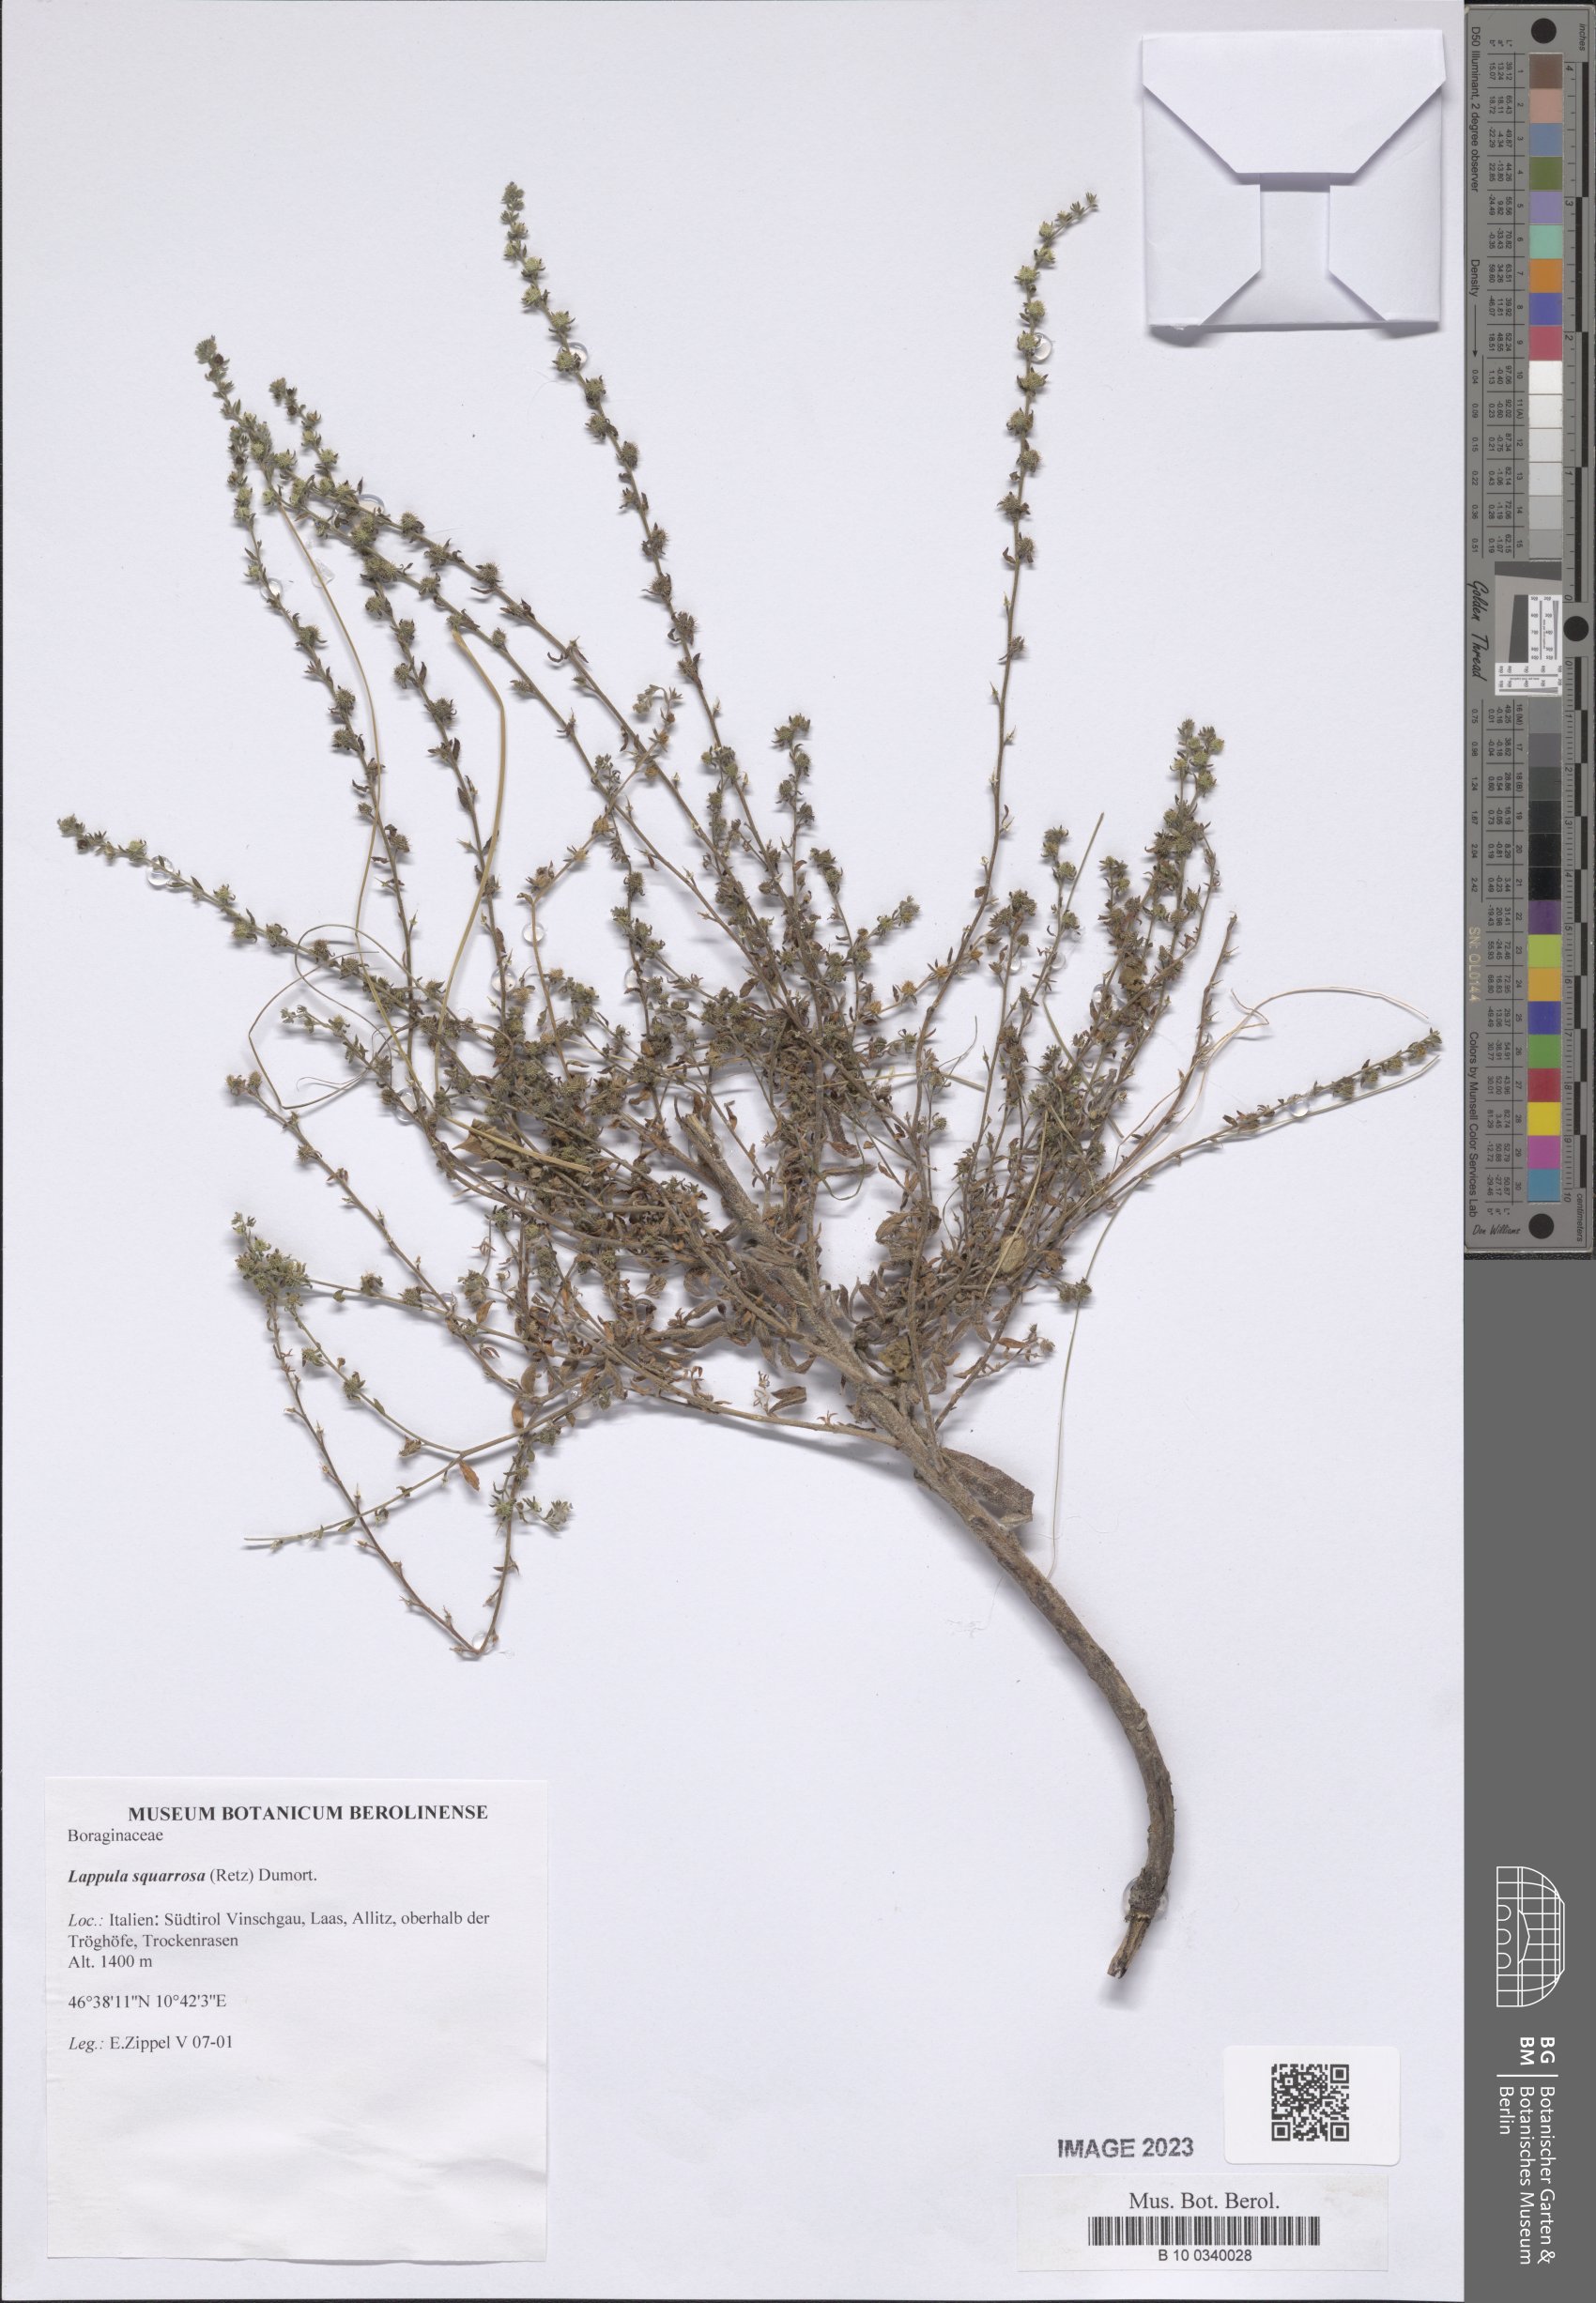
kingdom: Plantae
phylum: Tracheophyta
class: Magnoliopsida
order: Boraginales
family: Boraginaceae
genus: Lappula
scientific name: Lappula squarrosa
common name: European stickseed
